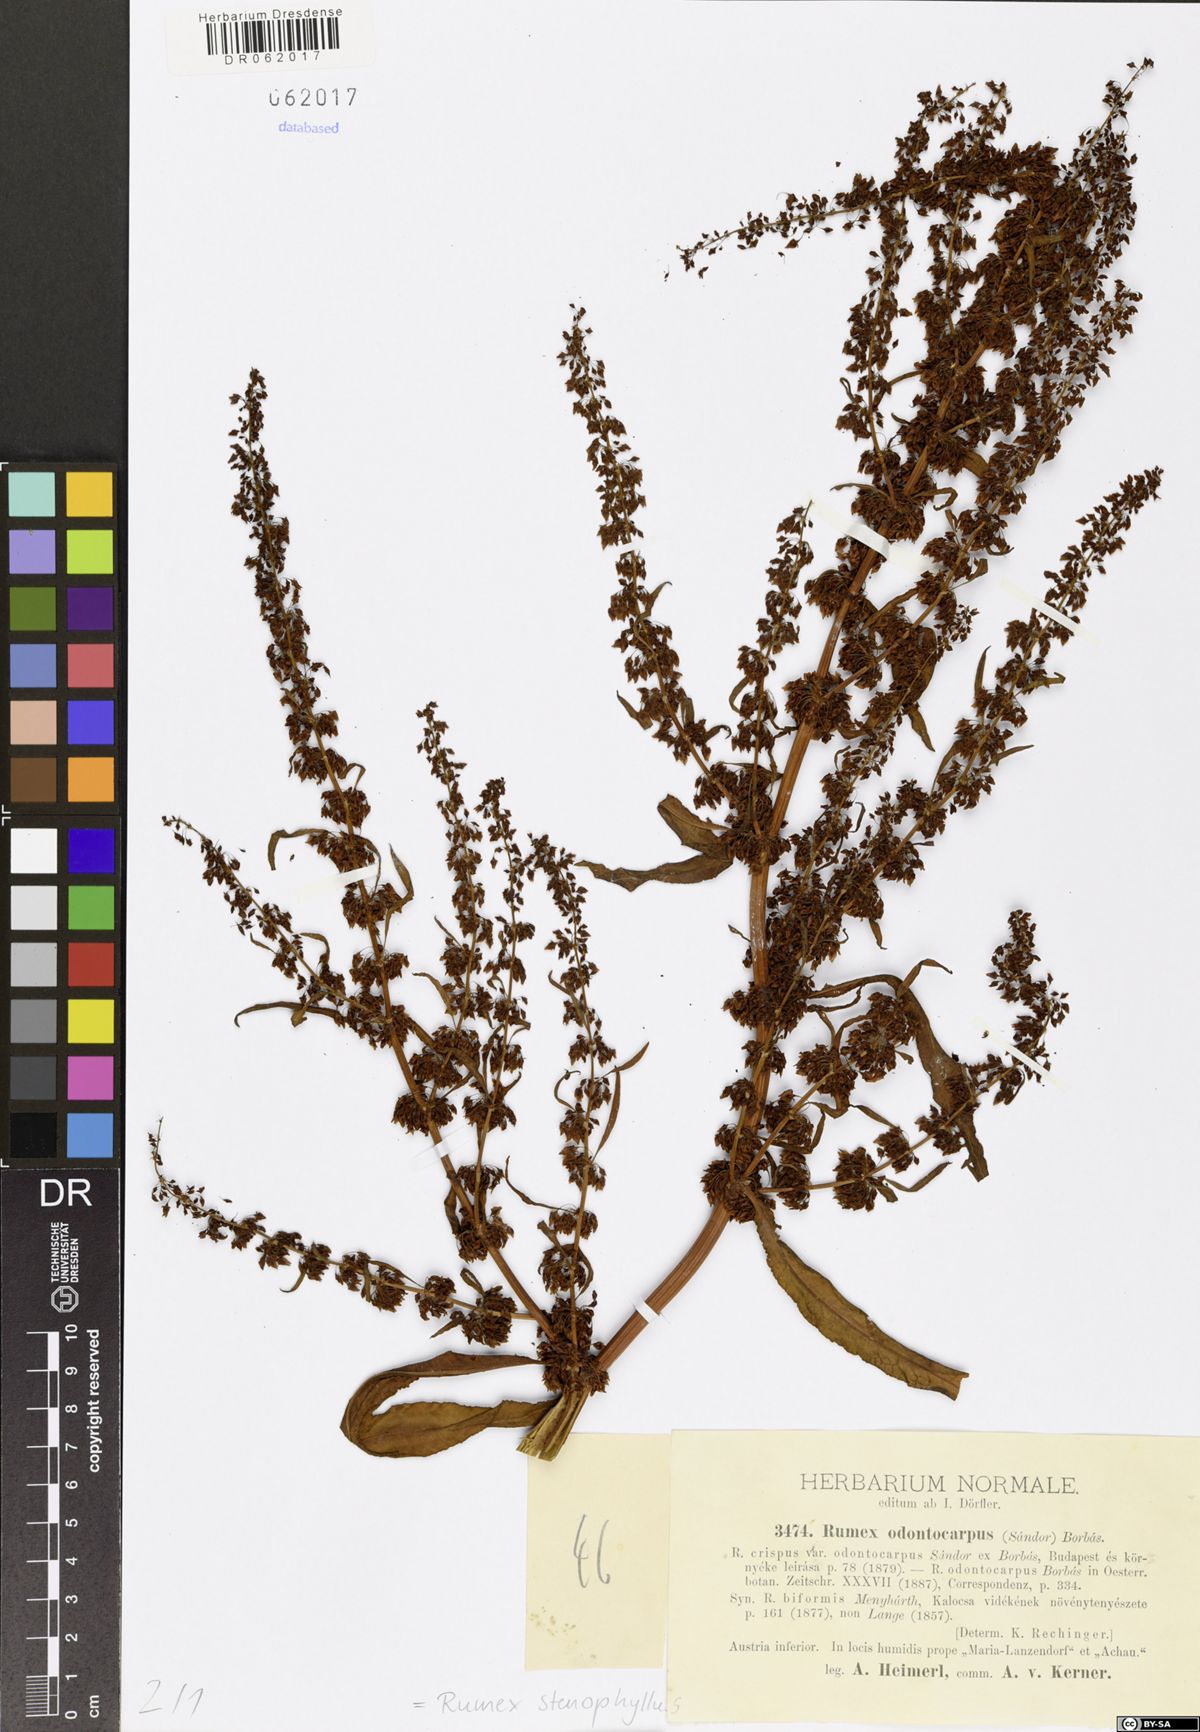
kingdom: Plantae
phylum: Tracheophyta
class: Magnoliopsida
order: Caryophyllales
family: Polygonaceae
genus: Rumex
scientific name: Rumex stenophyllus
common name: Narrowleaf dock
